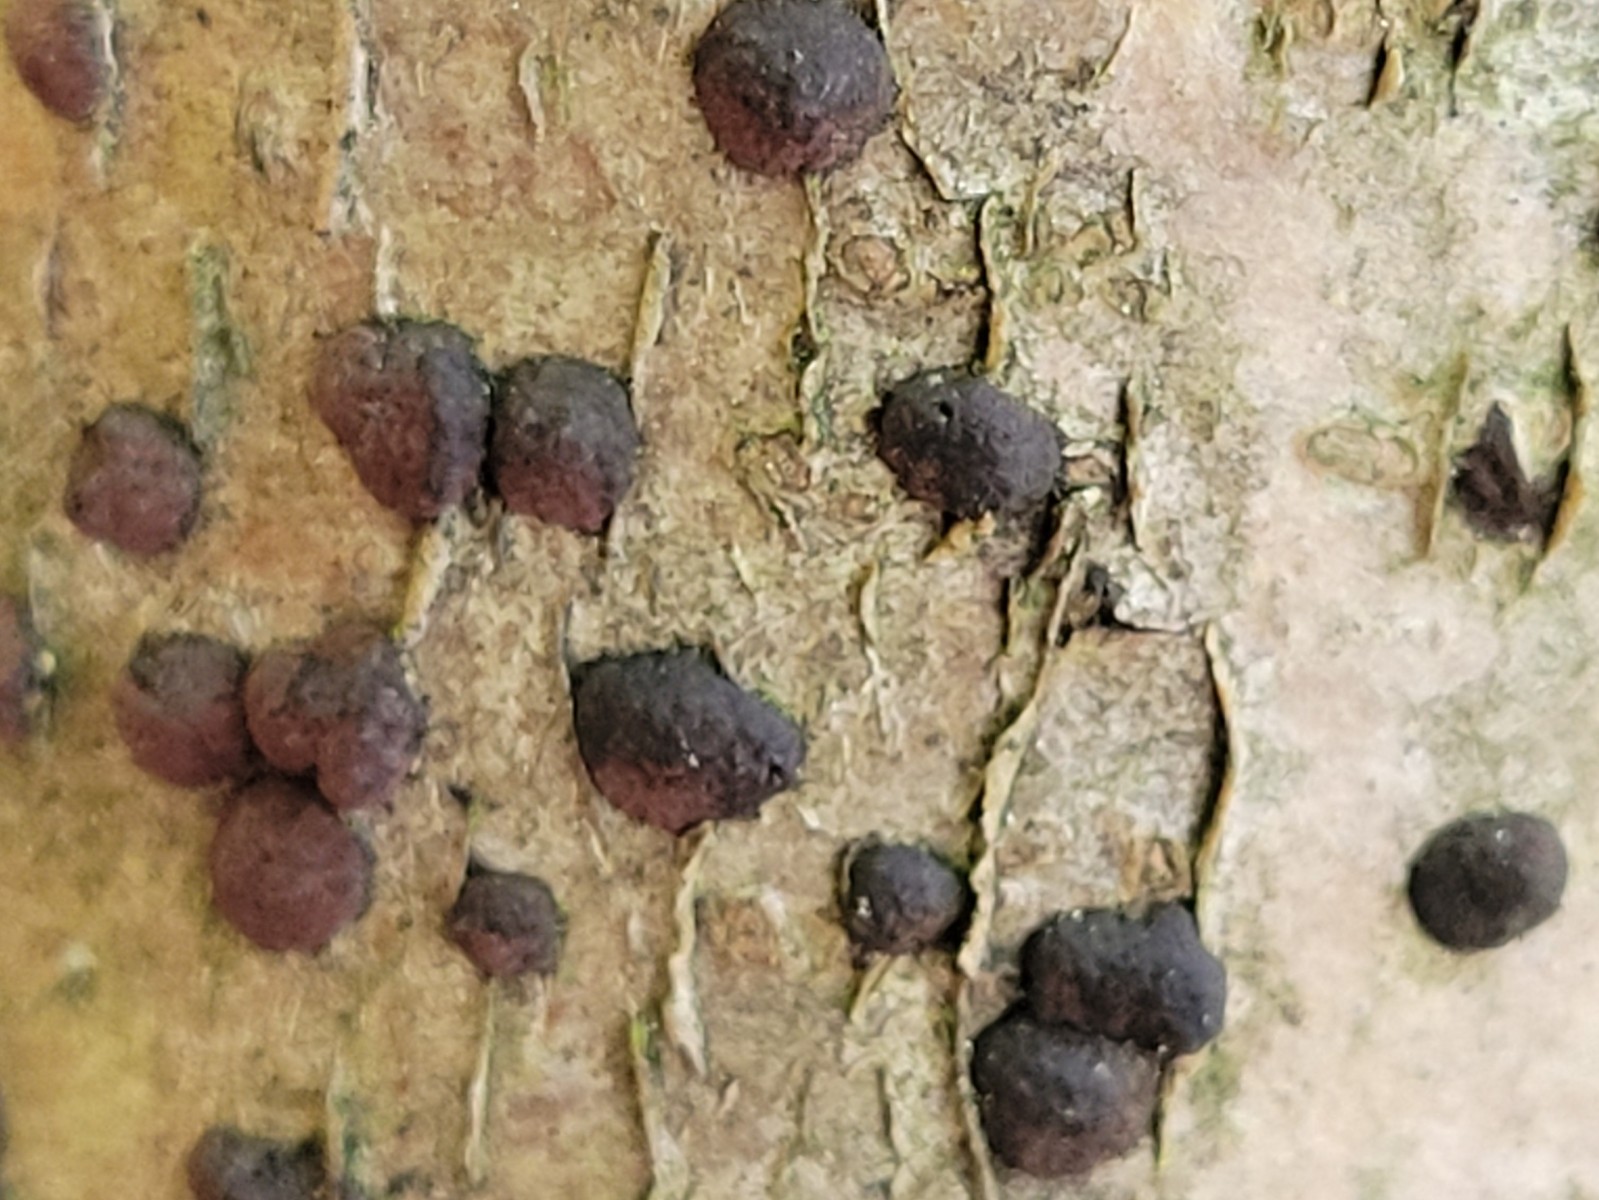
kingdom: Fungi
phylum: Ascomycota
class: Sordariomycetes
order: Xylariales
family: Hypoxylaceae
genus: Hypoxylon
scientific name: Hypoxylon fuscum
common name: kegleformet kulbær
